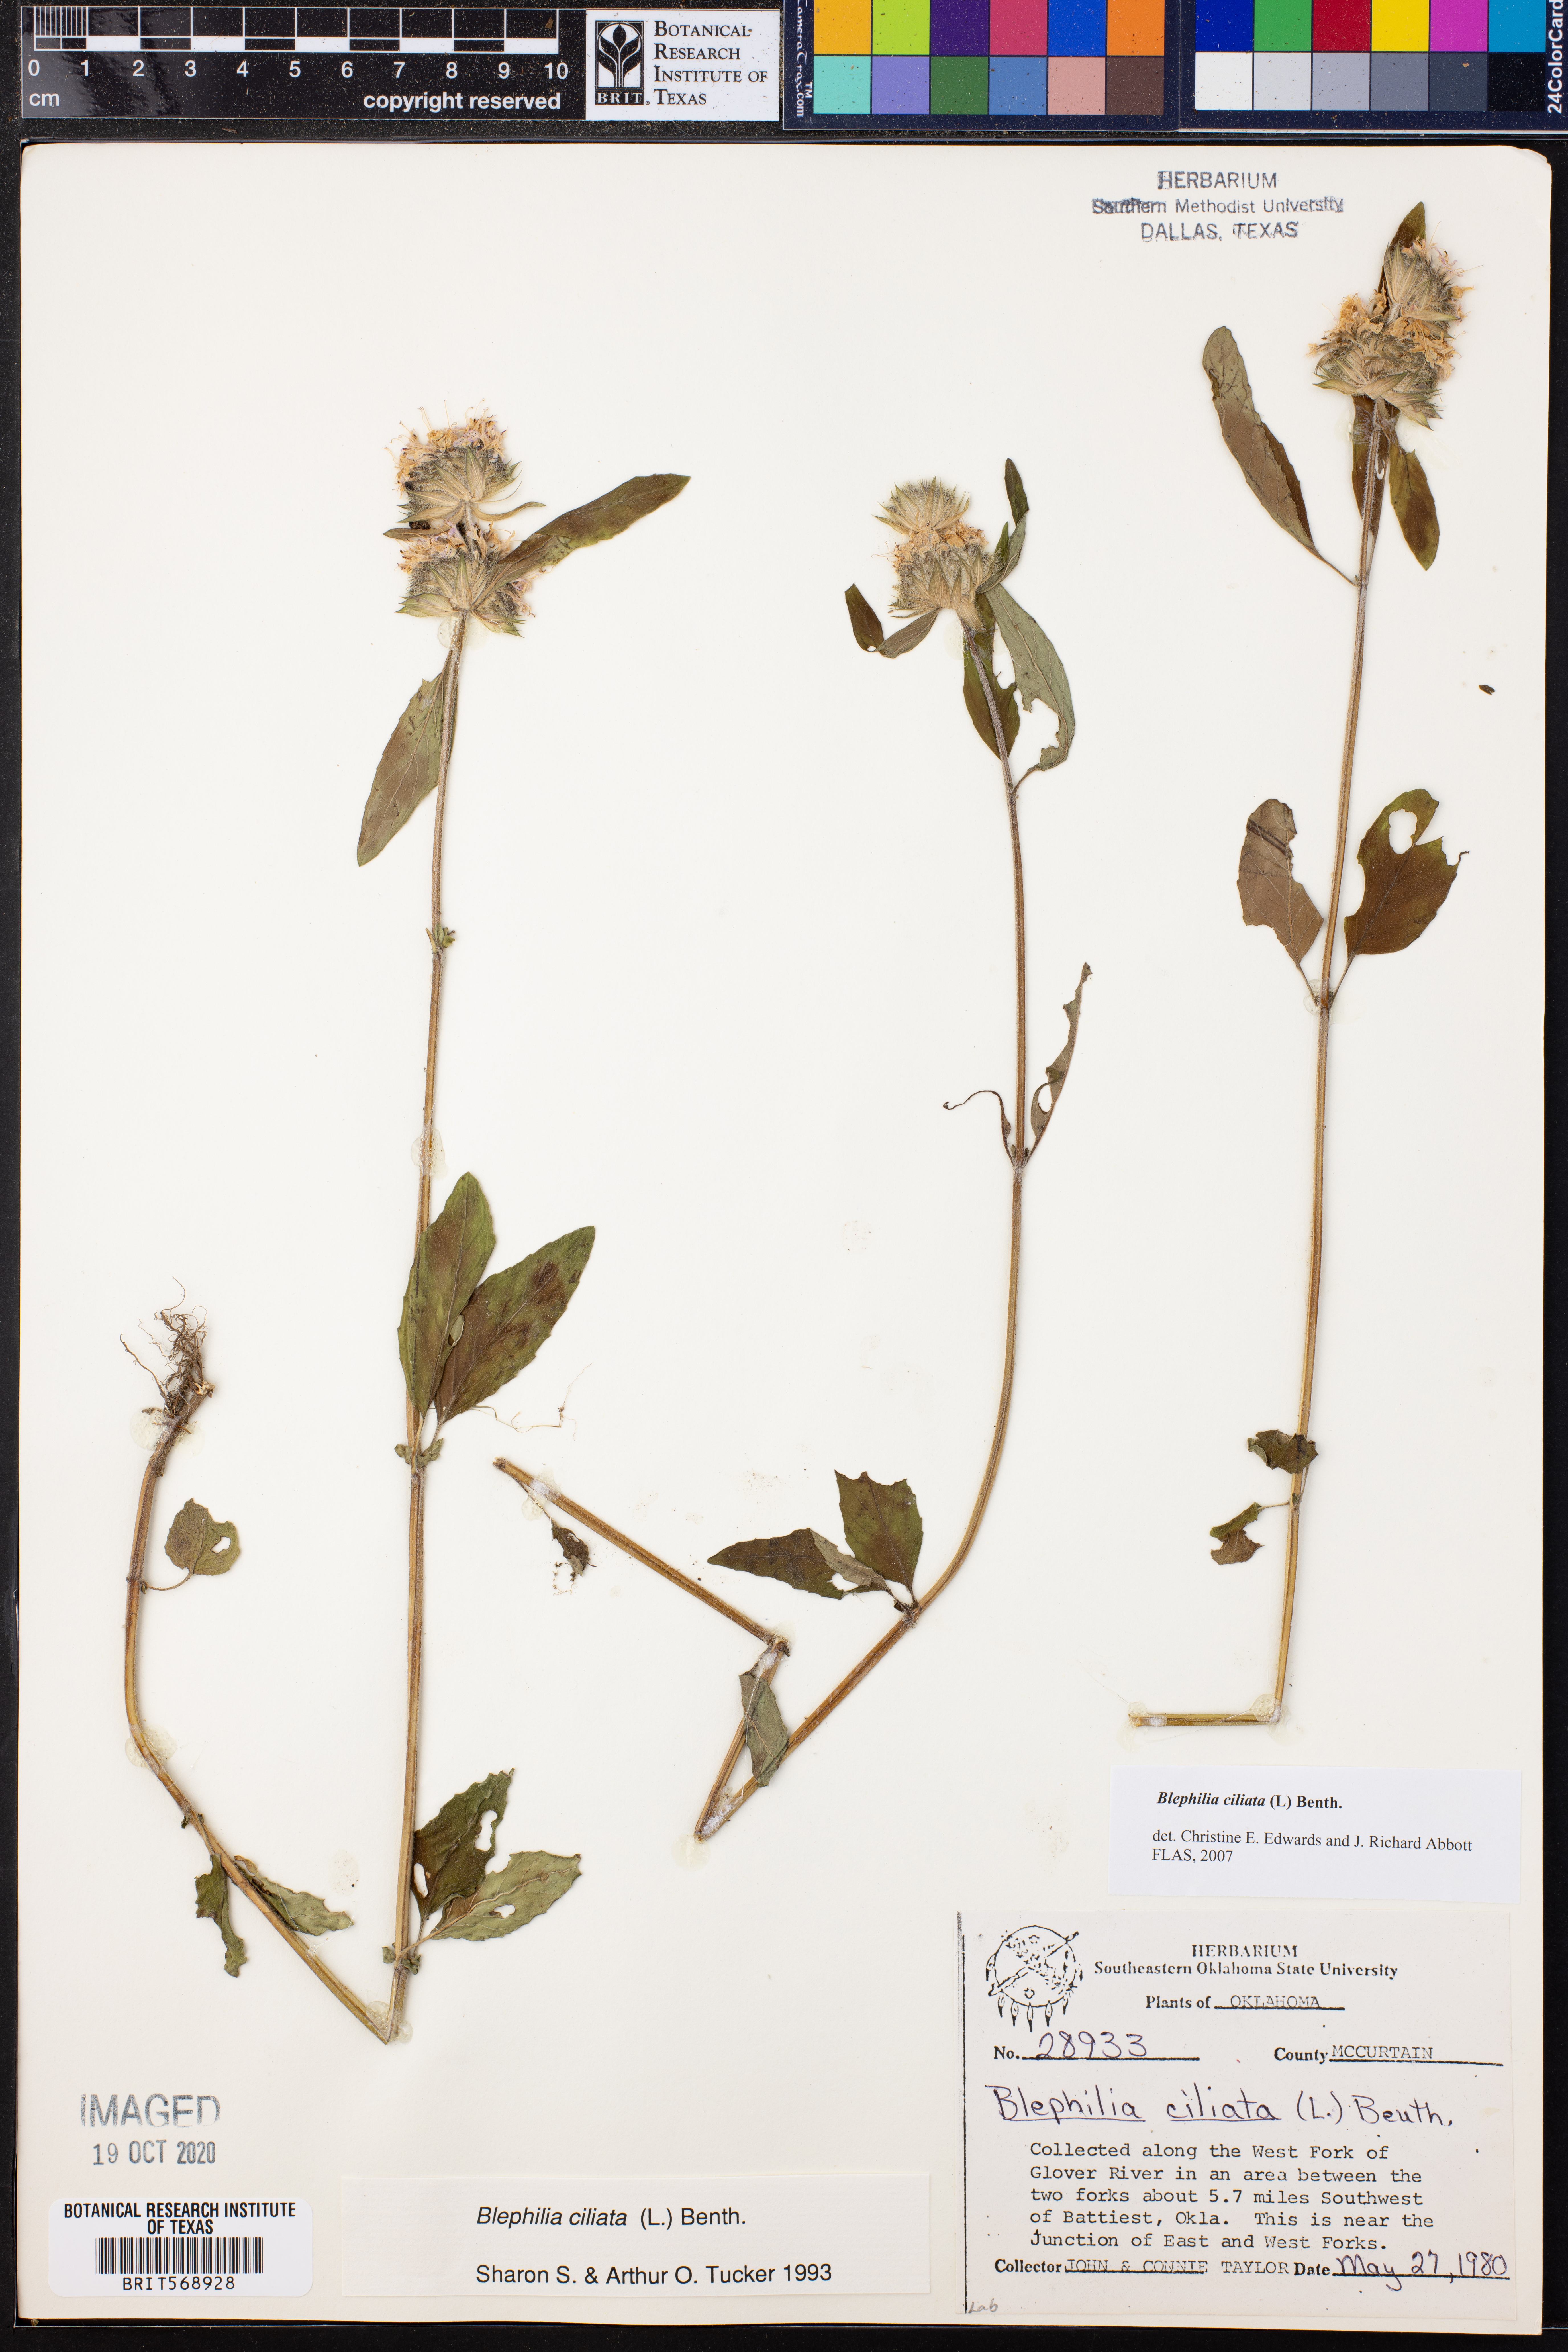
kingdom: Plantae
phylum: Tracheophyta
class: Magnoliopsida
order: Lamiales
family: Lamiaceae
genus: Blephilia
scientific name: Blephilia ciliata
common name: Downy blephilia
